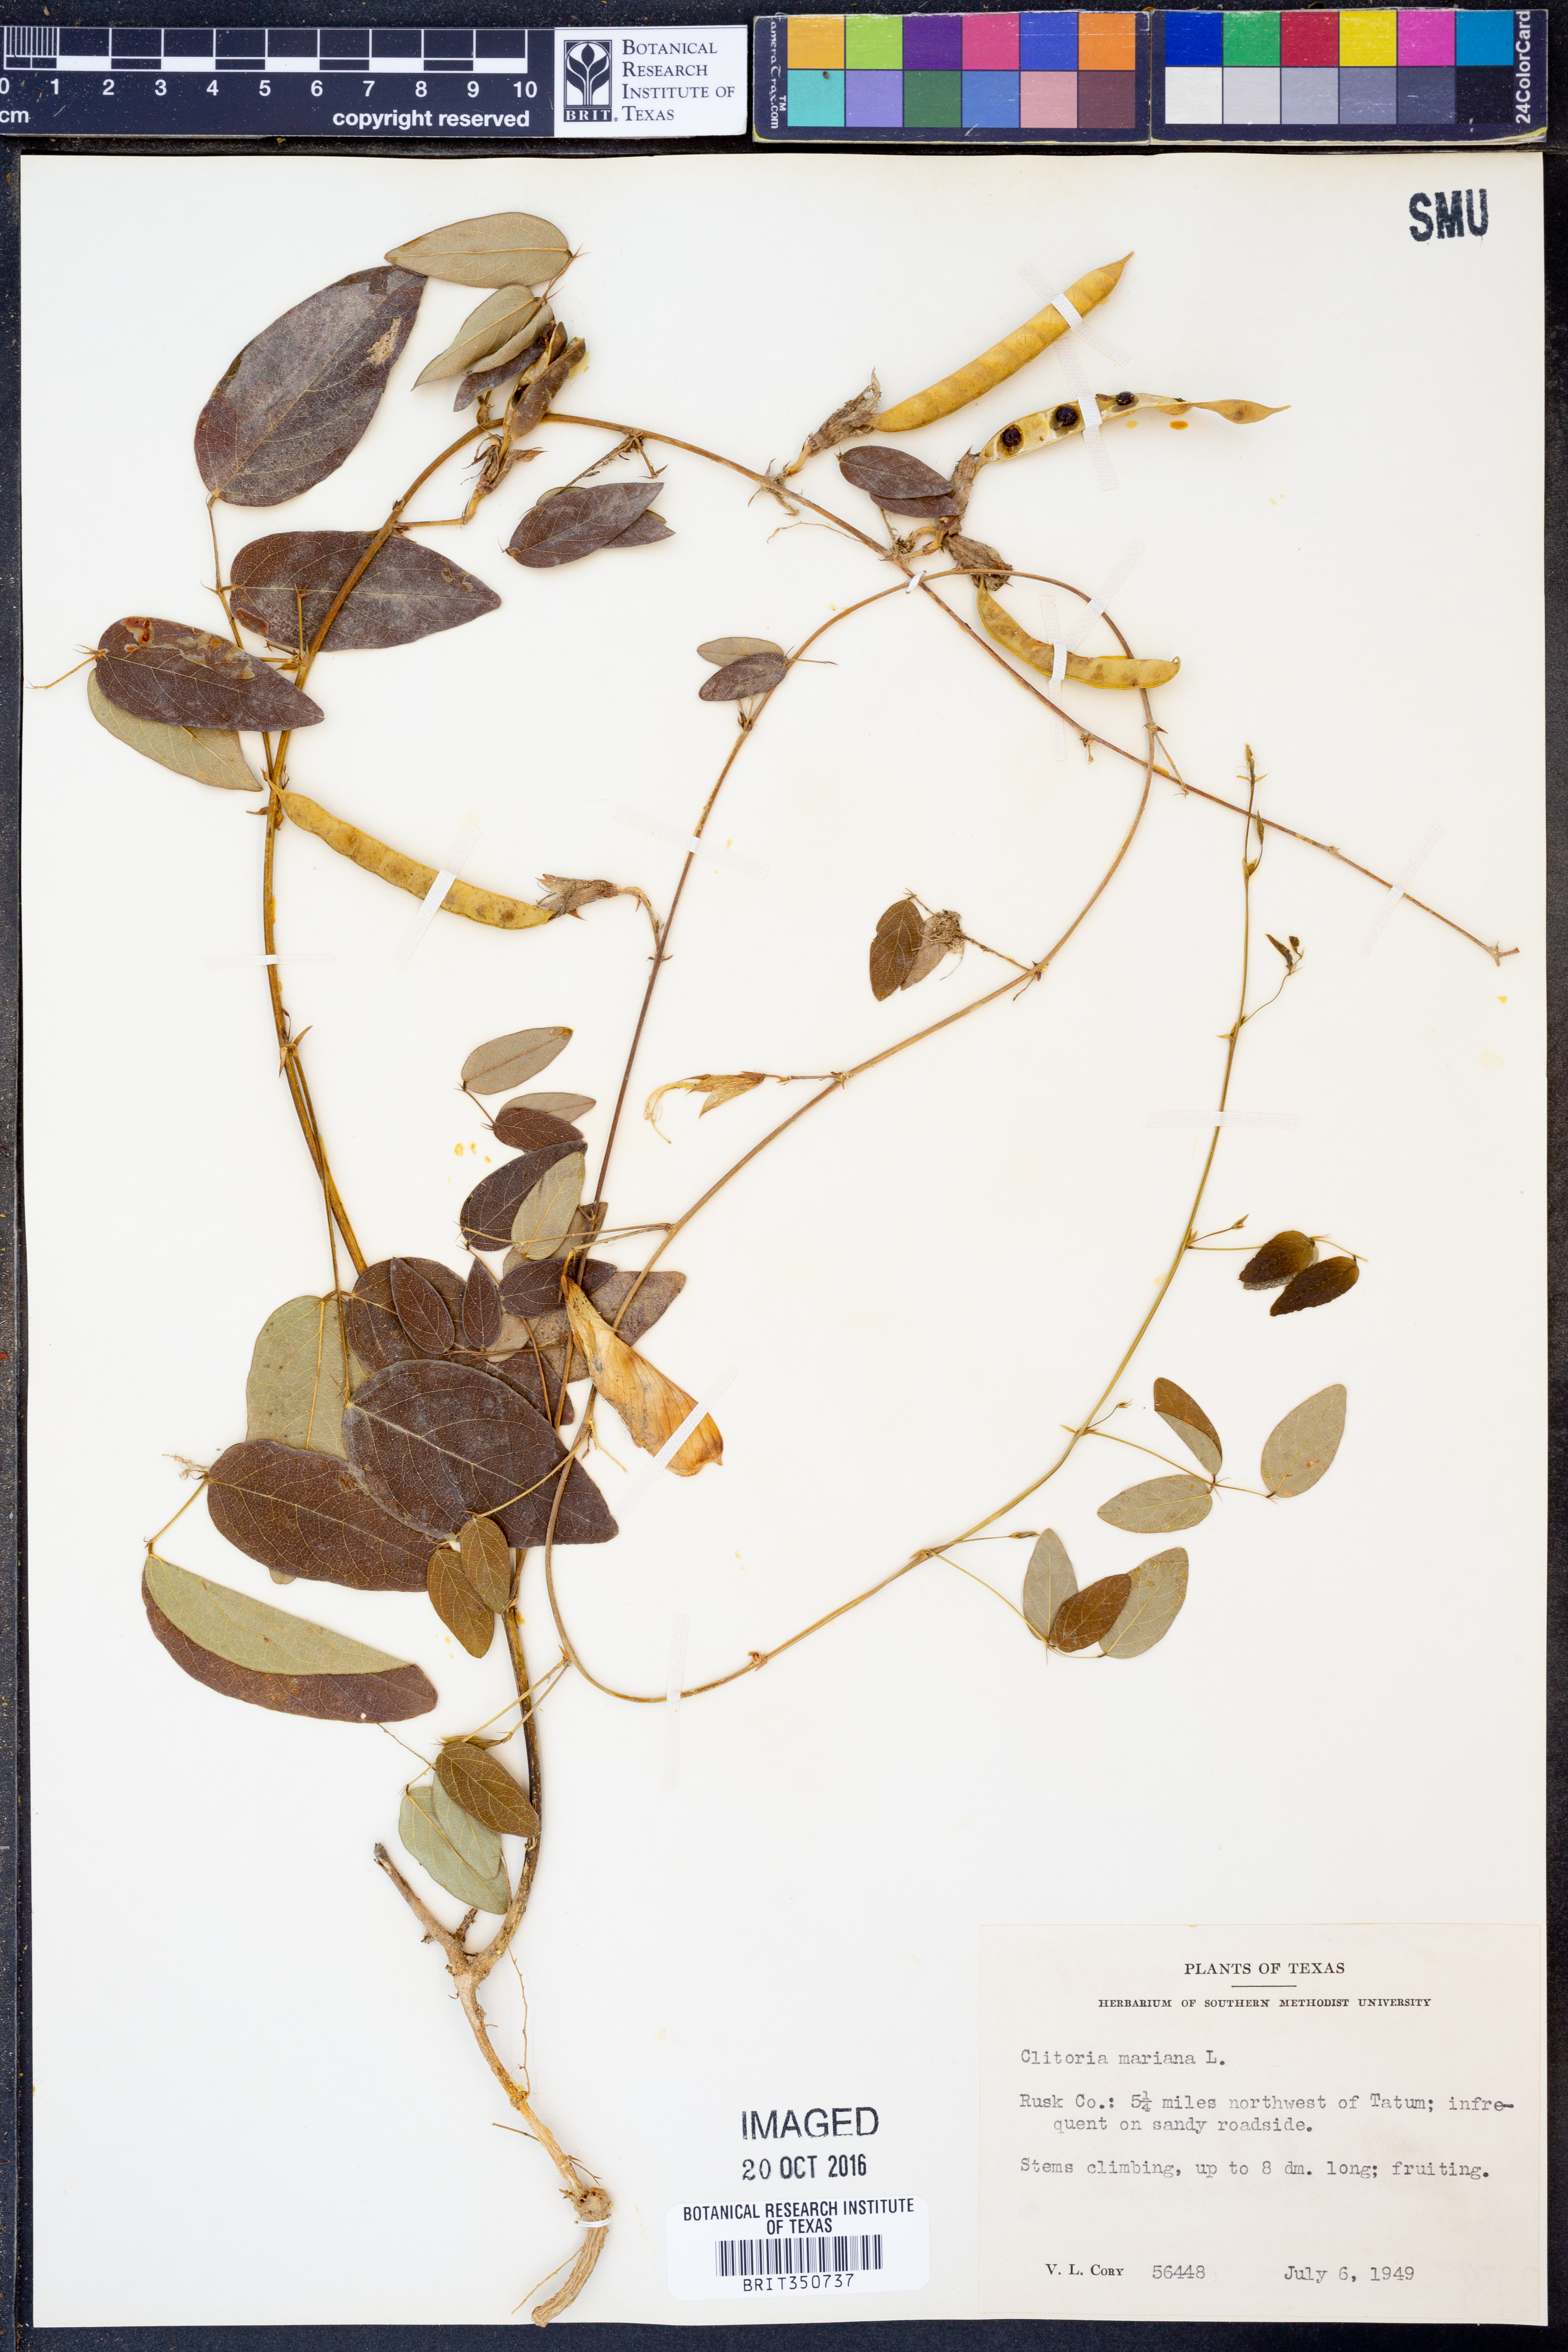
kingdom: Plantae
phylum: Tracheophyta
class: Magnoliopsida
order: Fabales
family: Fabaceae
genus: Clitoria
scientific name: Clitoria mariana
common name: Butterfly-pea
